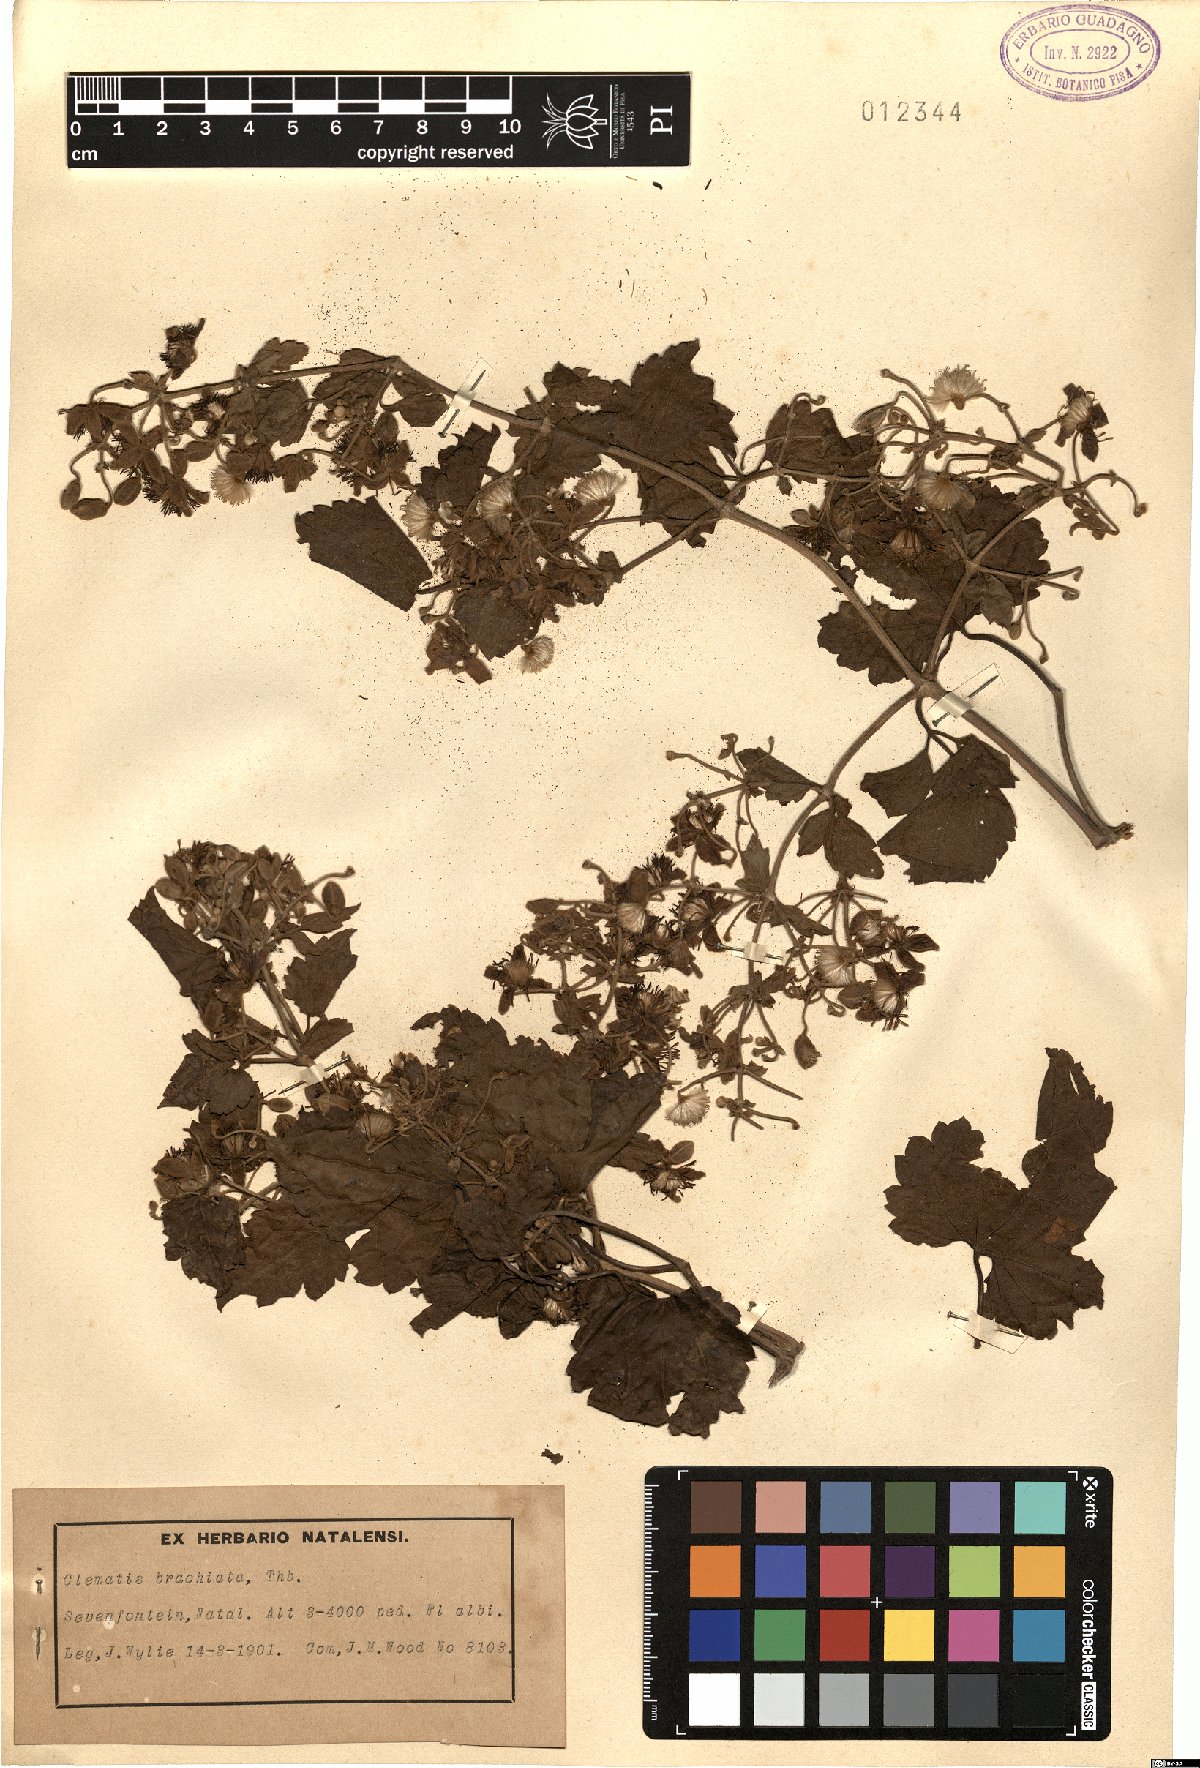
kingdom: Plantae
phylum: Tracheophyta
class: Magnoliopsida
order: Ranunculales
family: Ranunculaceae
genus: Clematis
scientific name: Clematis brachiata
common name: Traveler's-joy
